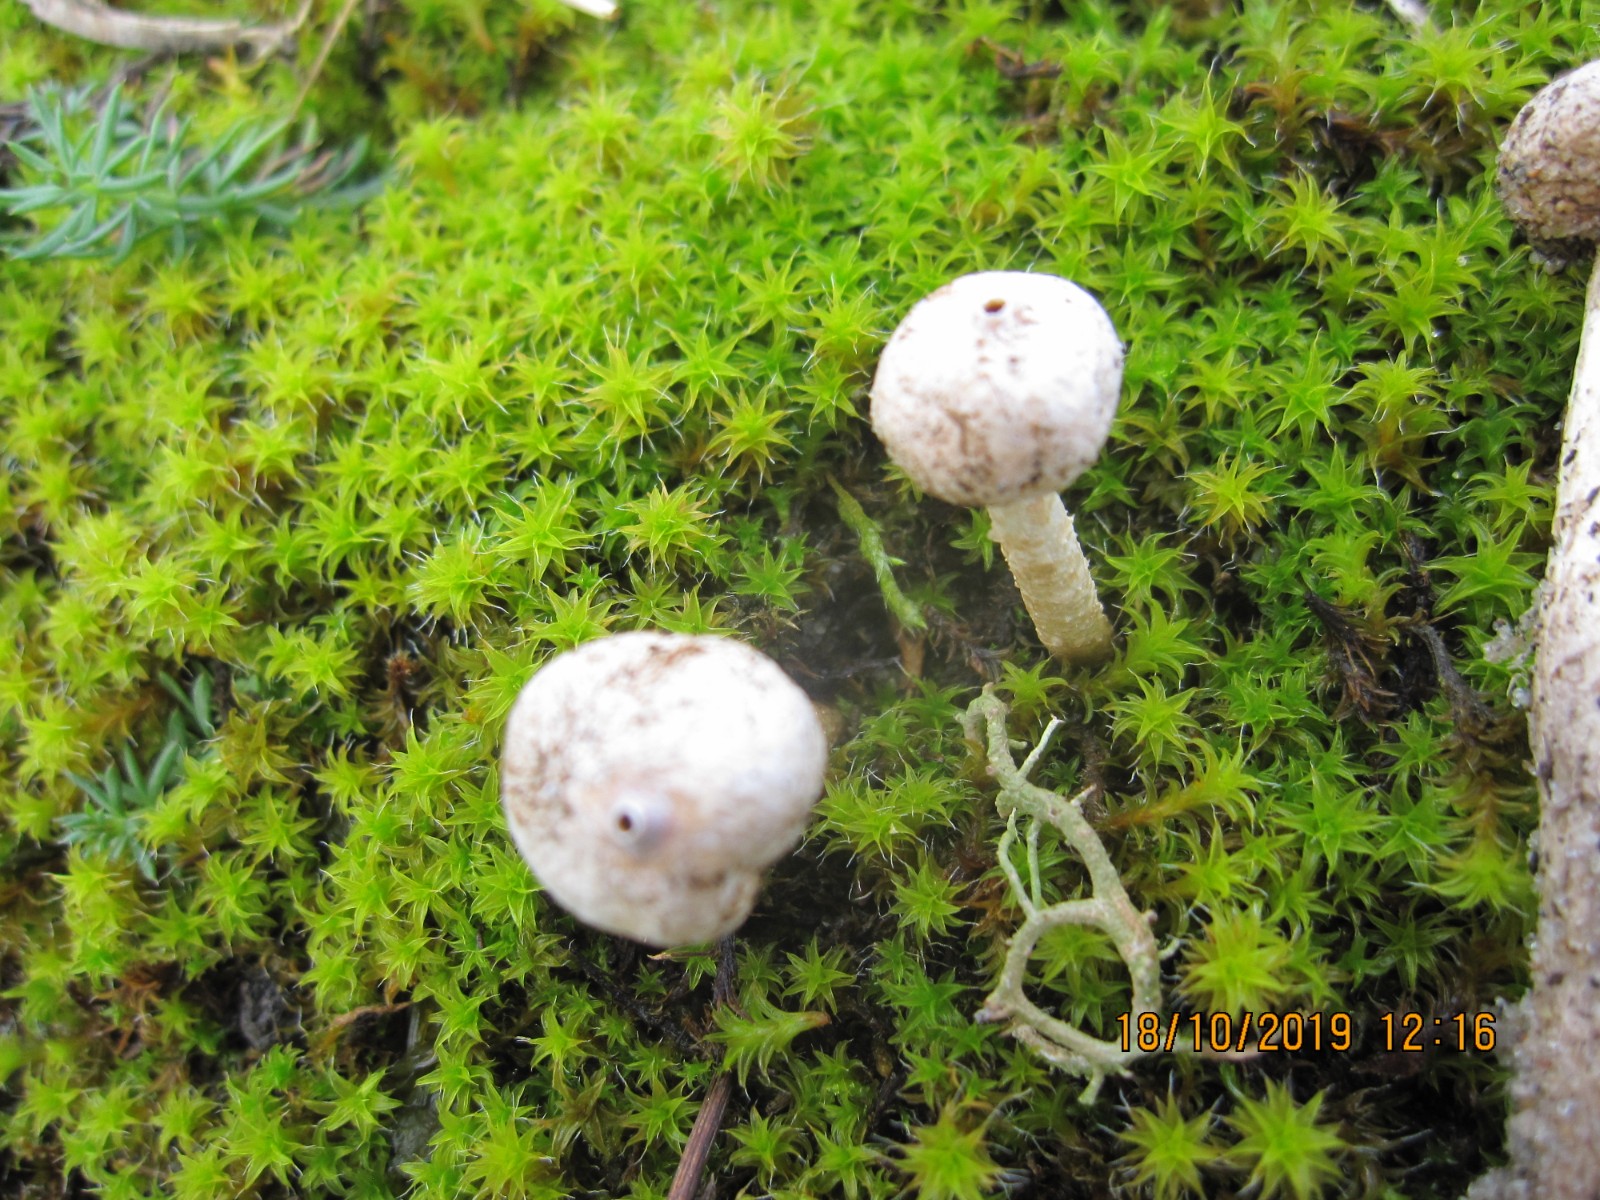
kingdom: Fungi
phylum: Basidiomycota
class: Agaricomycetes
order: Agaricales
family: Agaricaceae
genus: Tulostoma
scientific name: Tulostoma brumale
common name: vinter-stilkbovist
